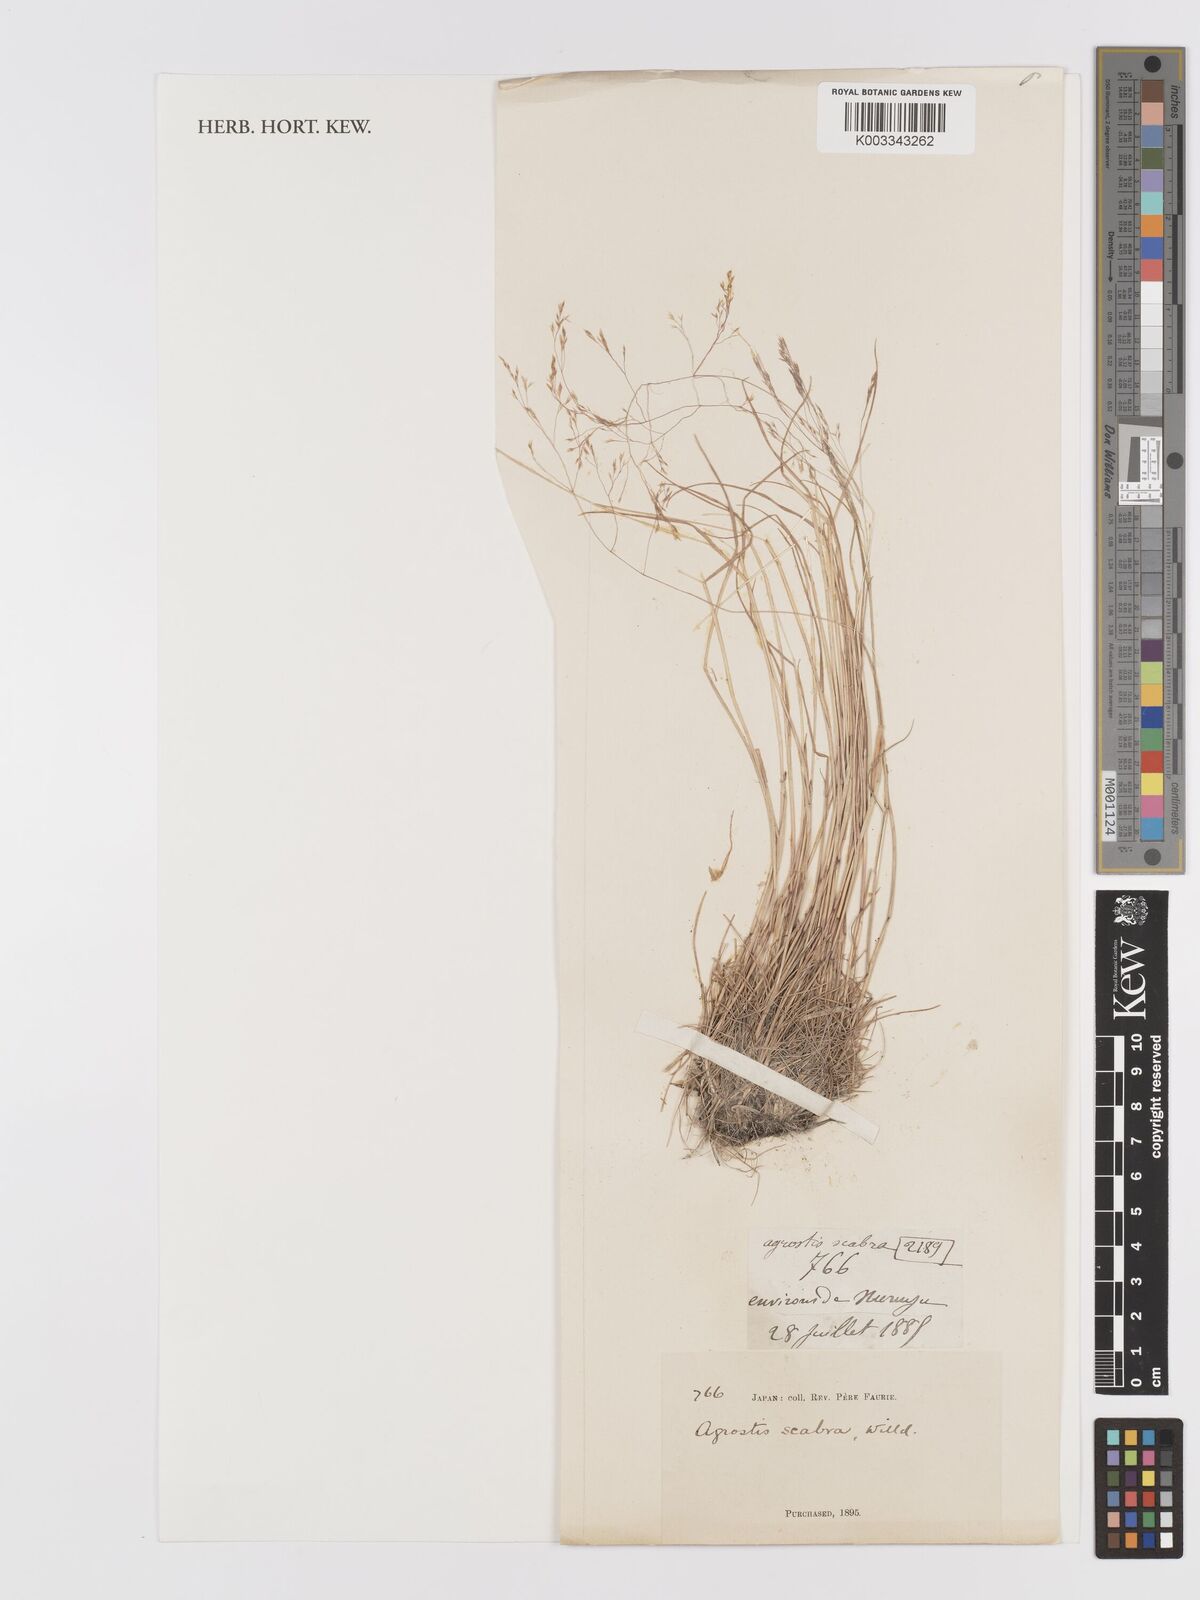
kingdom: Plantae
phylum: Tracheophyta
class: Liliopsida
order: Poales
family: Poaceae
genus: Agrostis
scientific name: Agrostis scabra
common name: Rough bent
